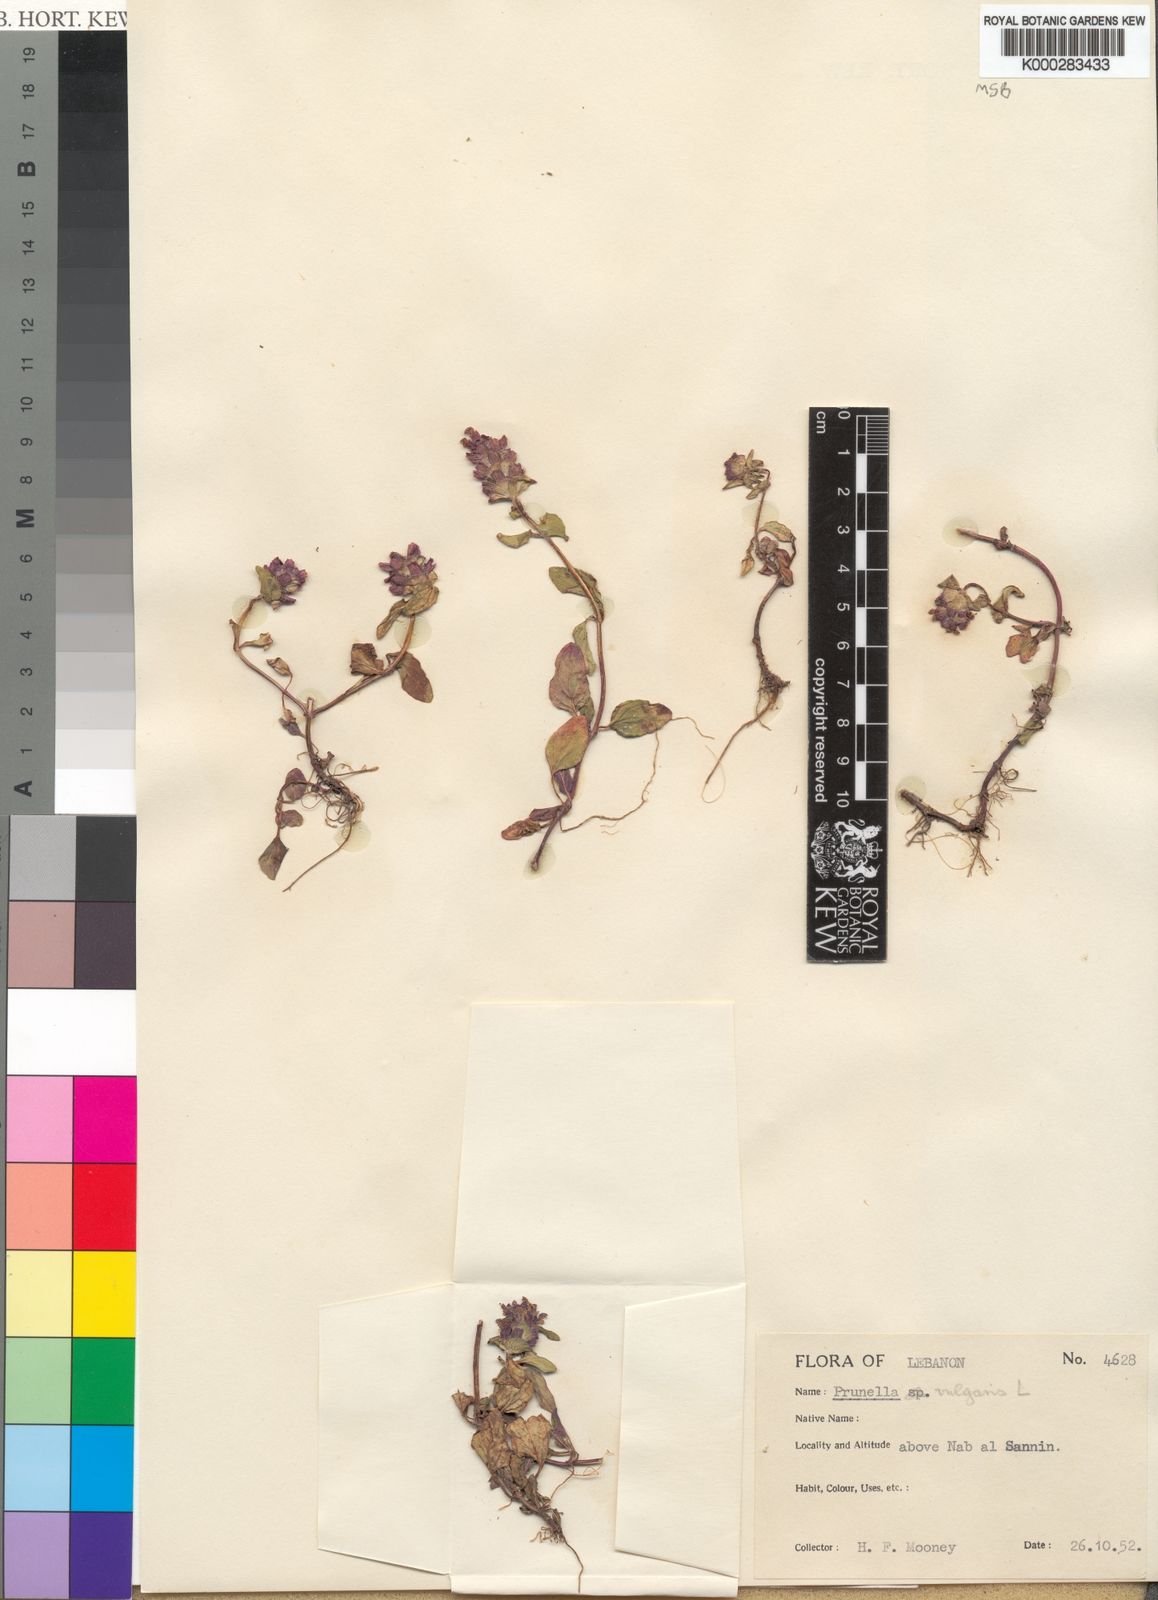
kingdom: Plantae
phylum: Tracheophyta
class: Magnoliopsida
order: Lamiales
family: Lamiaceae
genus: Prunella
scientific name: Prunella vulgaris
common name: Heal-all
